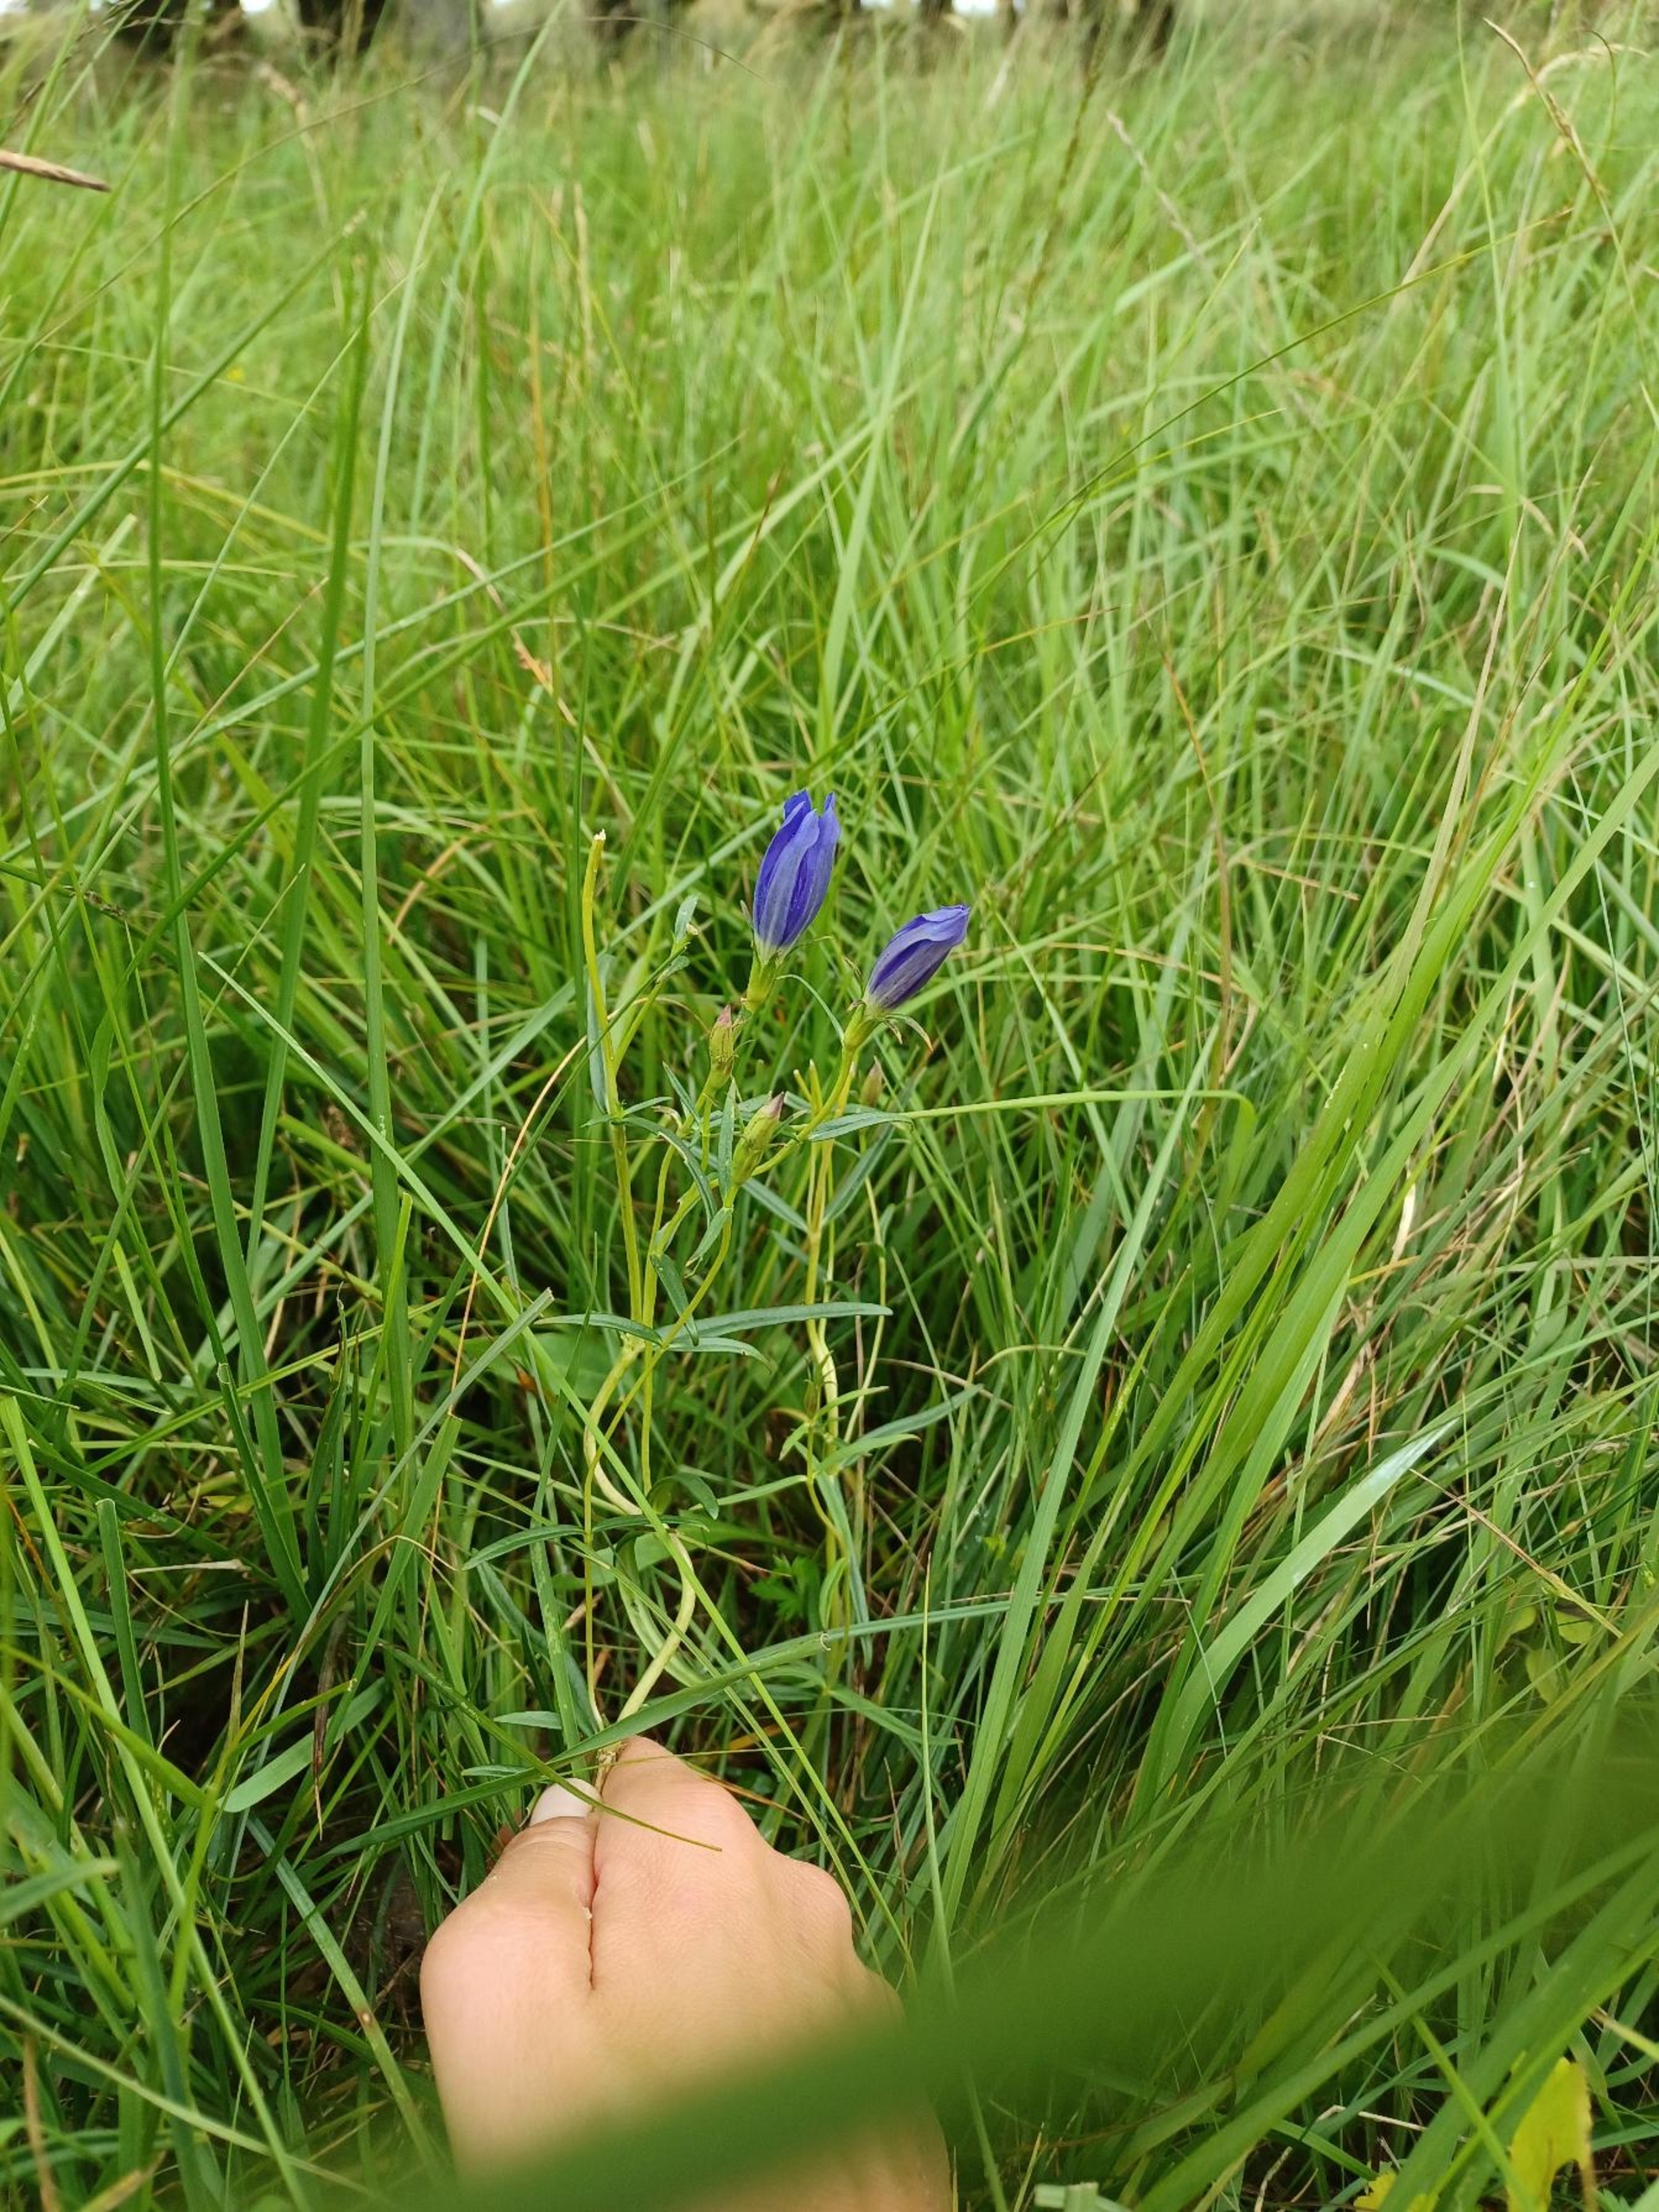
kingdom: Plantae
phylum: Tracheophyta
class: Magnoliopsida
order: Gentianales
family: Gentianaceae
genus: Gentiana
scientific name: Gentiana pneumonanthe
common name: Klokke-ensian
